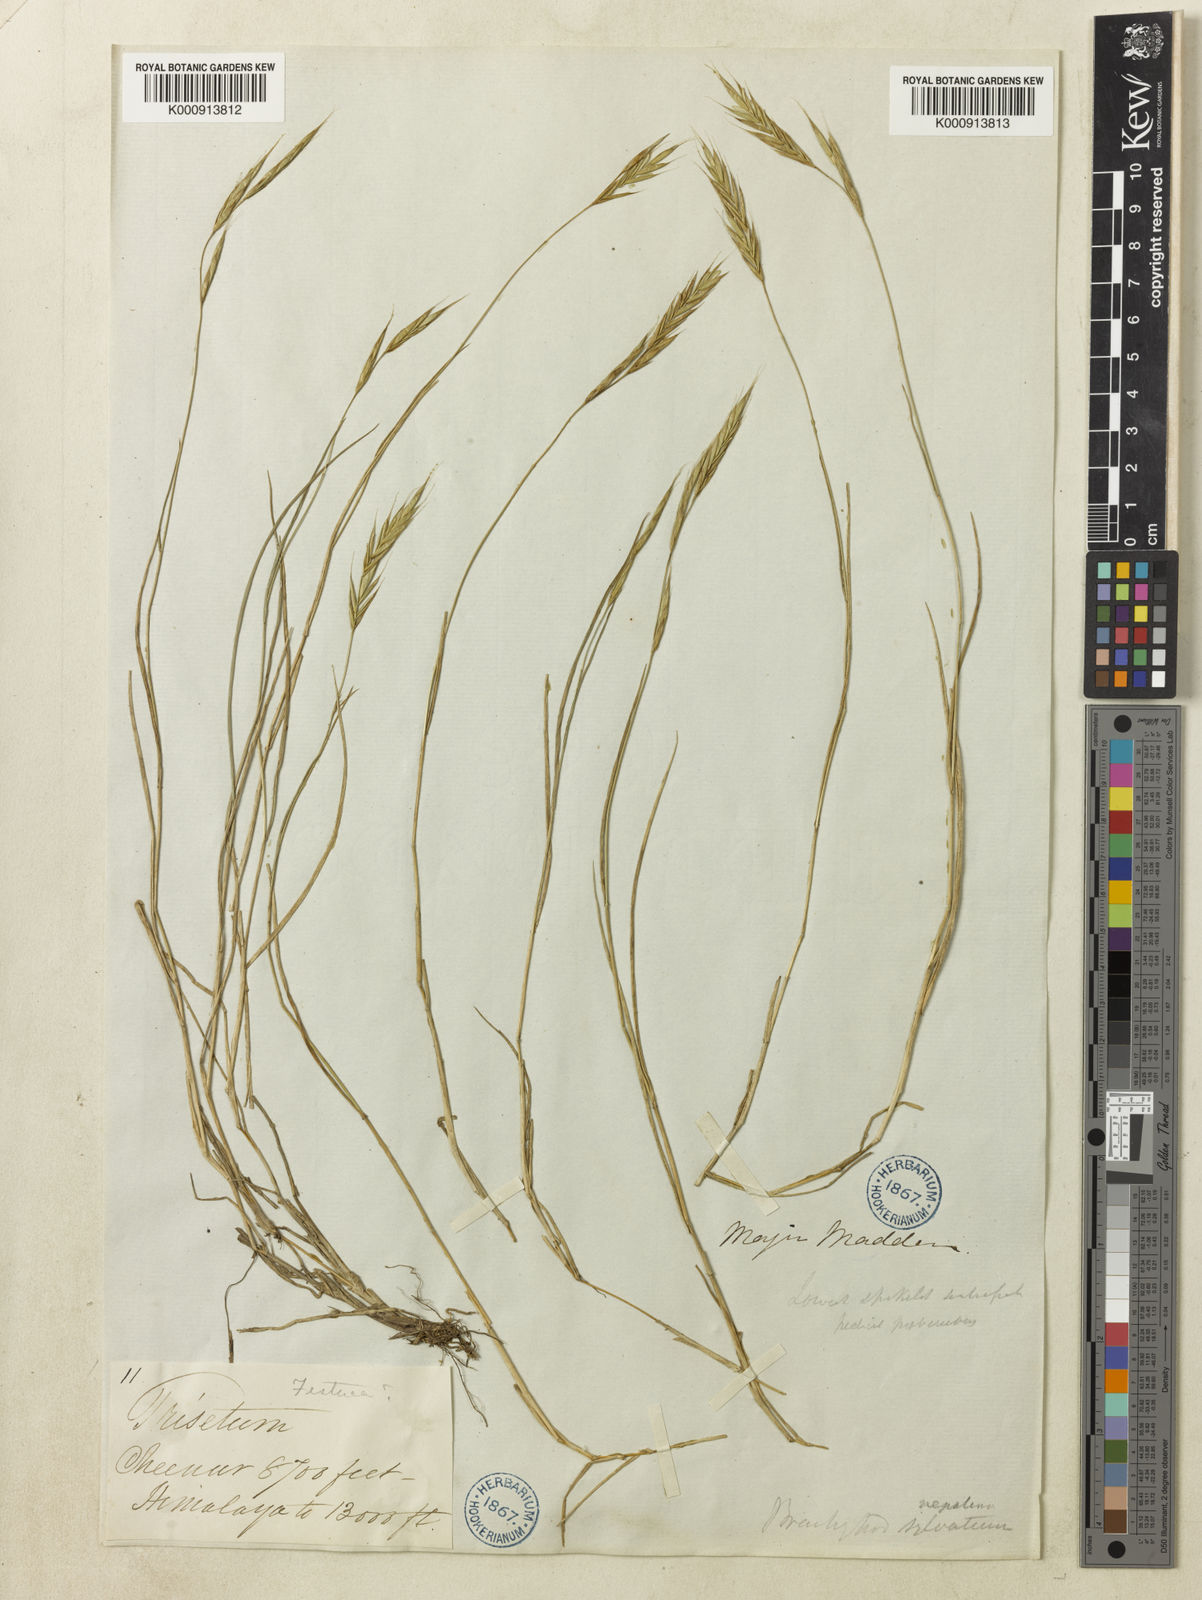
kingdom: Plantae
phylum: Tracheophyta
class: Liliopsida
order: Poales
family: Poaceae
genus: Brachypodium
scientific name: Brachypodium sylvaticum
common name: False-brome
